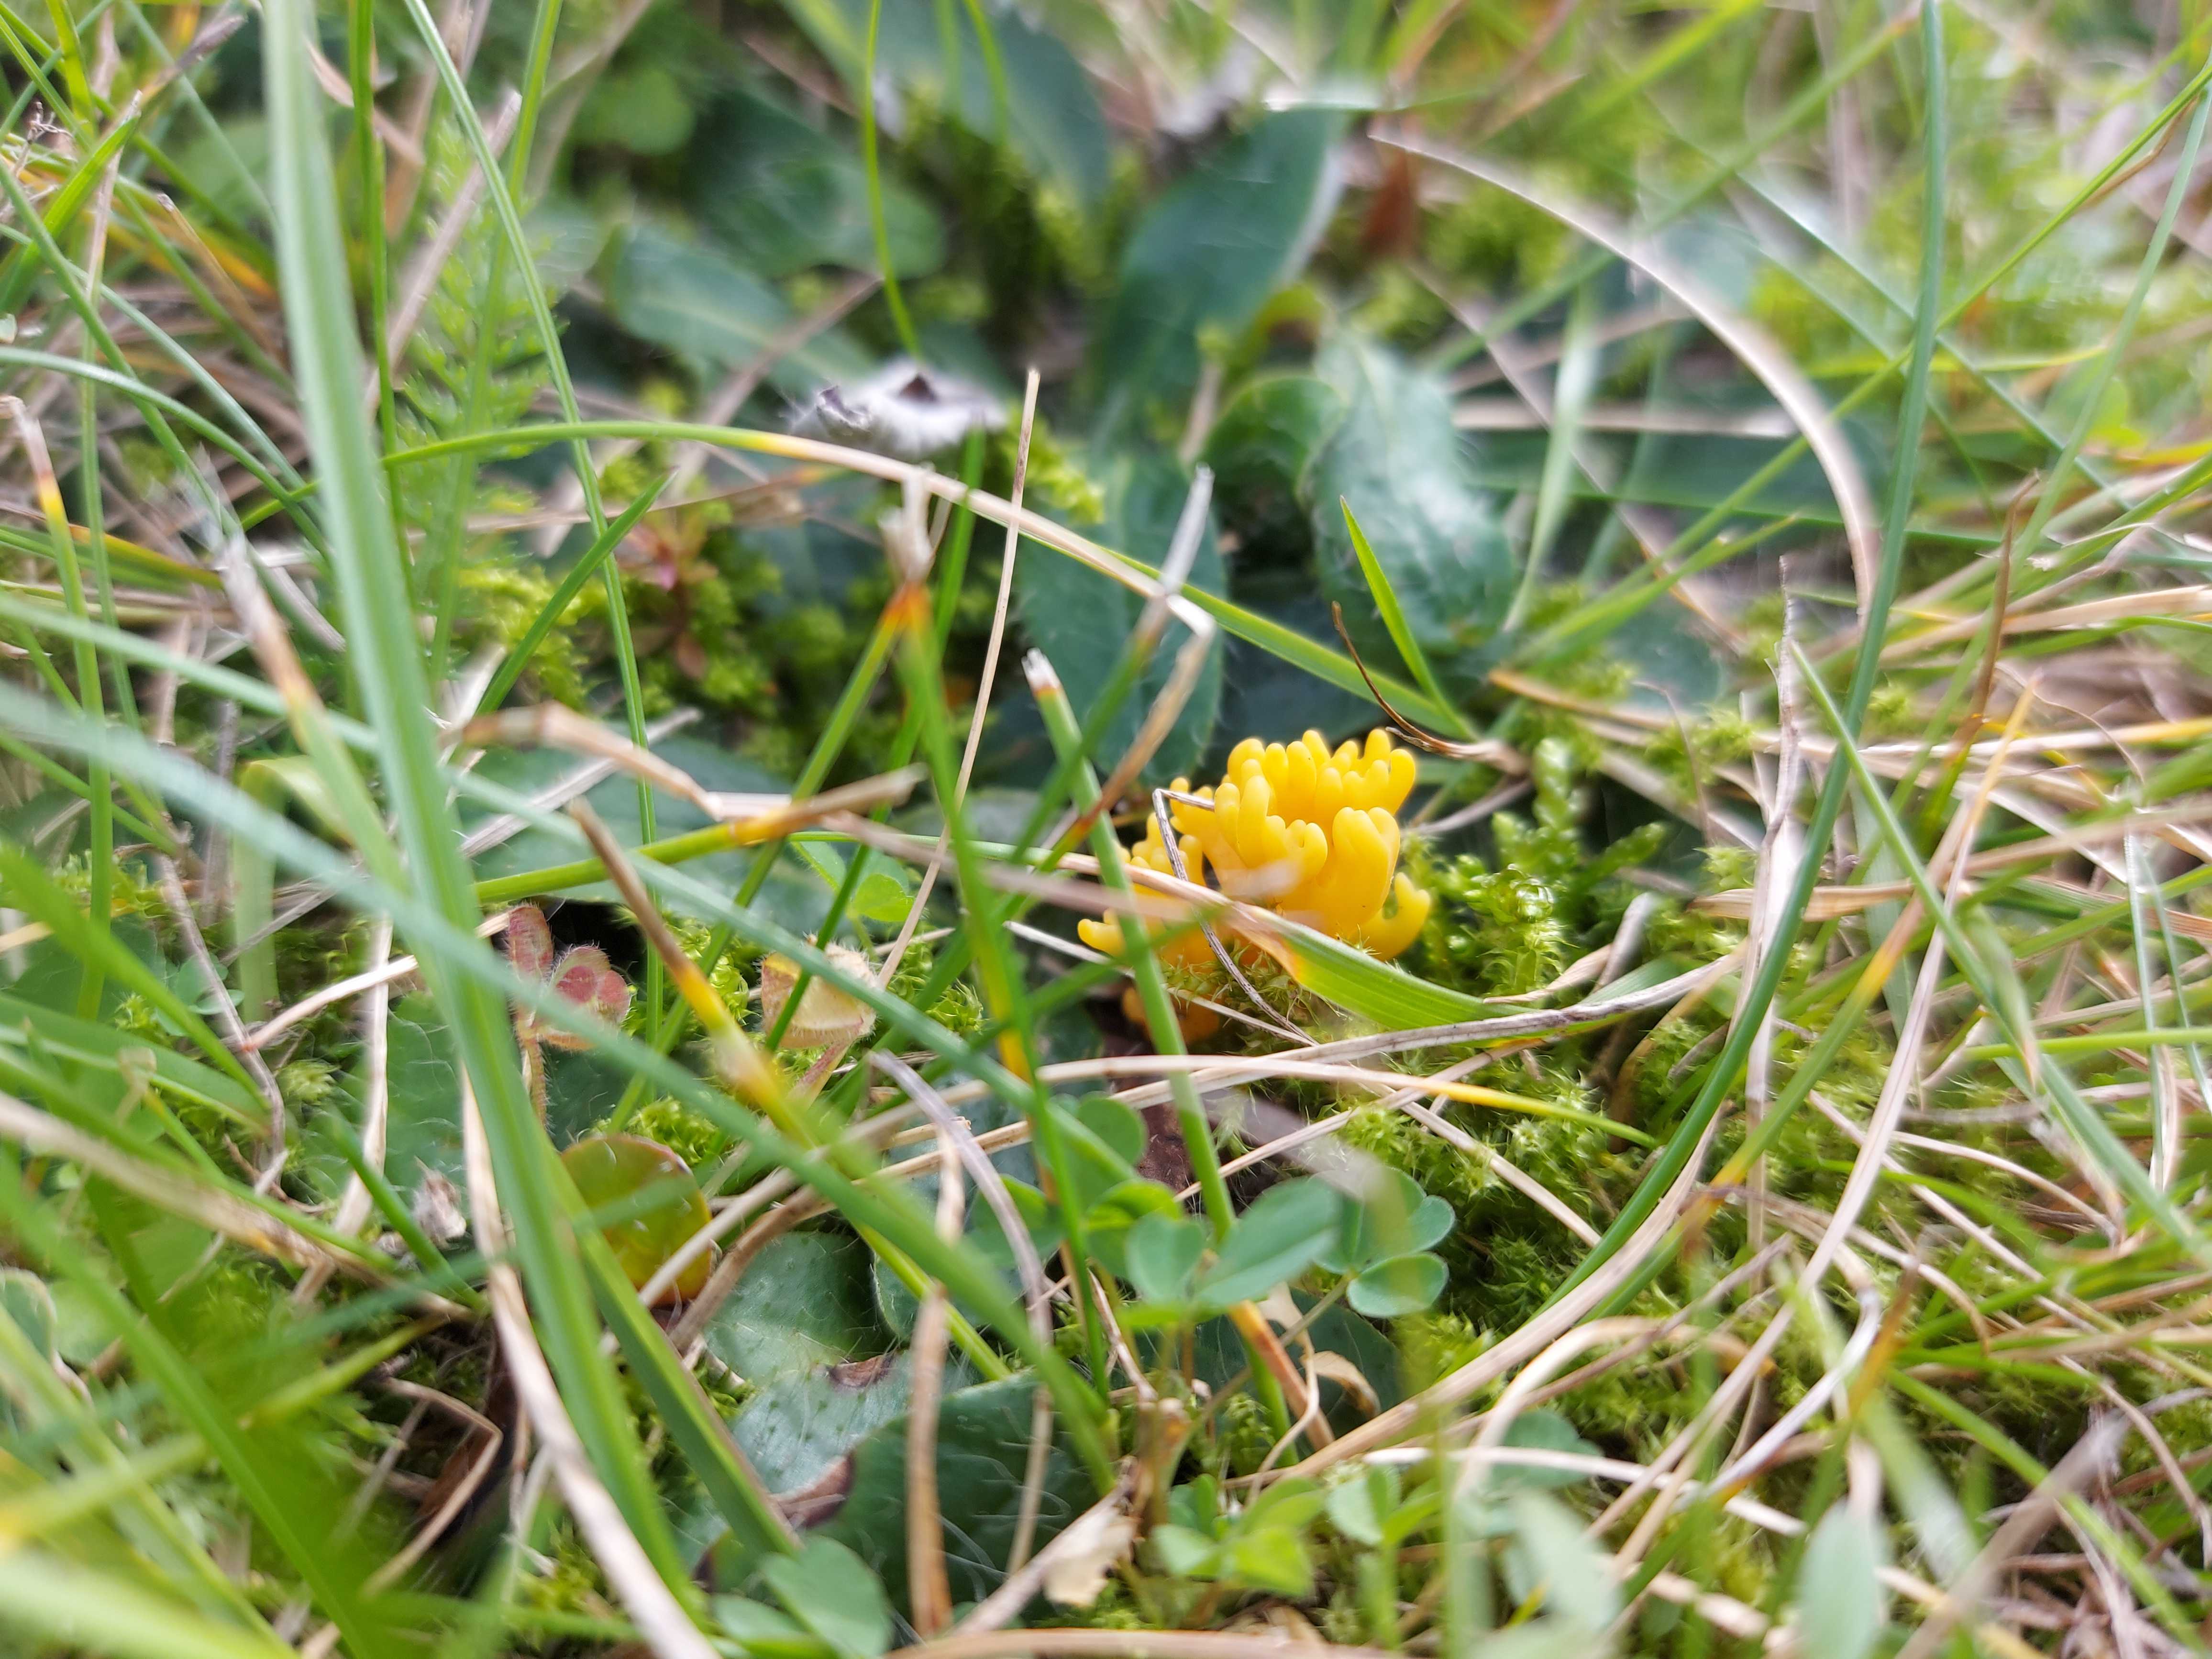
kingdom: Fungi
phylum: Basidiomycota
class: Agaricomycetes
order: Agaricales
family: Clavariaceae
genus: Clavulinopsis
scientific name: Clavulinopsis corniculata
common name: eng-køllesvamp
